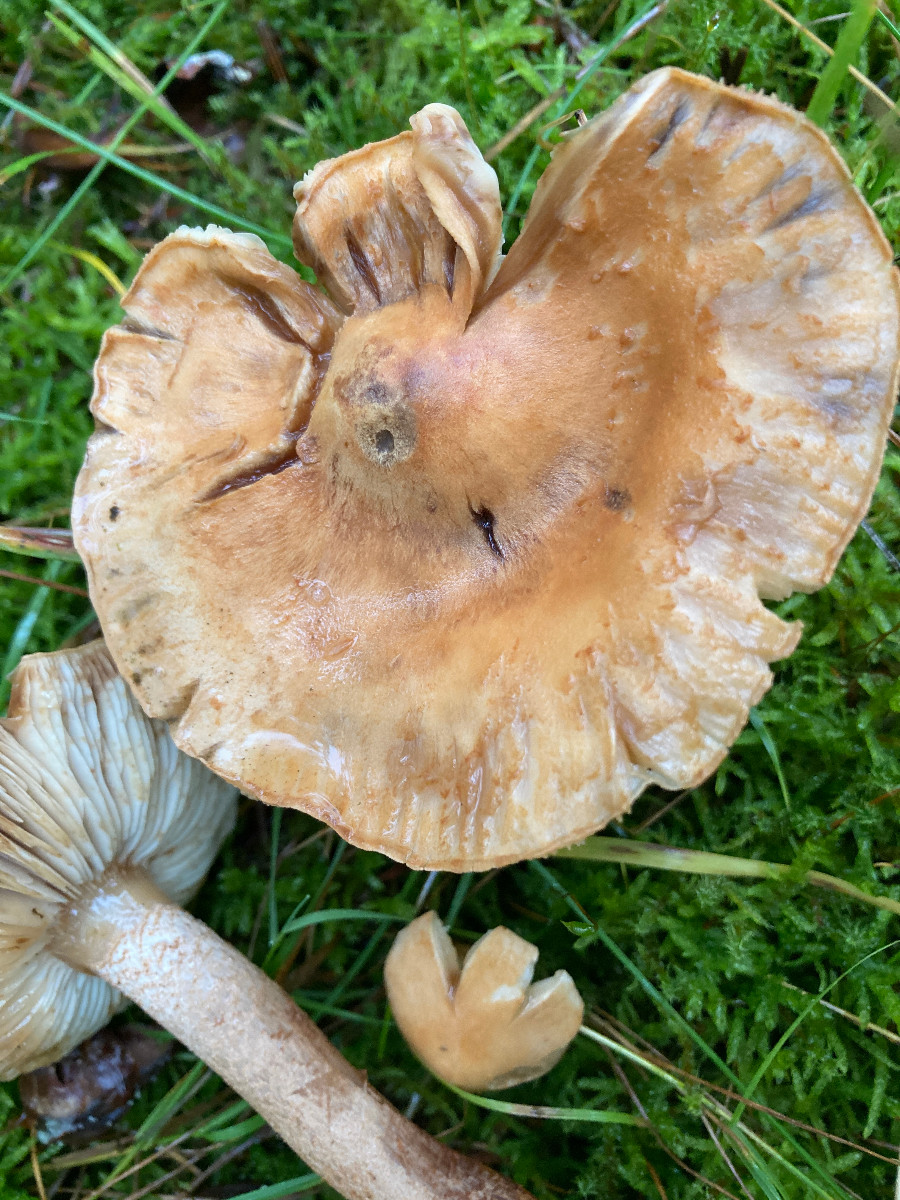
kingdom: Fungi
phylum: Basidiomycota
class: Agaricomycetes
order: Agaricales
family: Tricholomataceae
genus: Tricholoma
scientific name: Tricholoma psammopus
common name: grynstokket ridderhat
